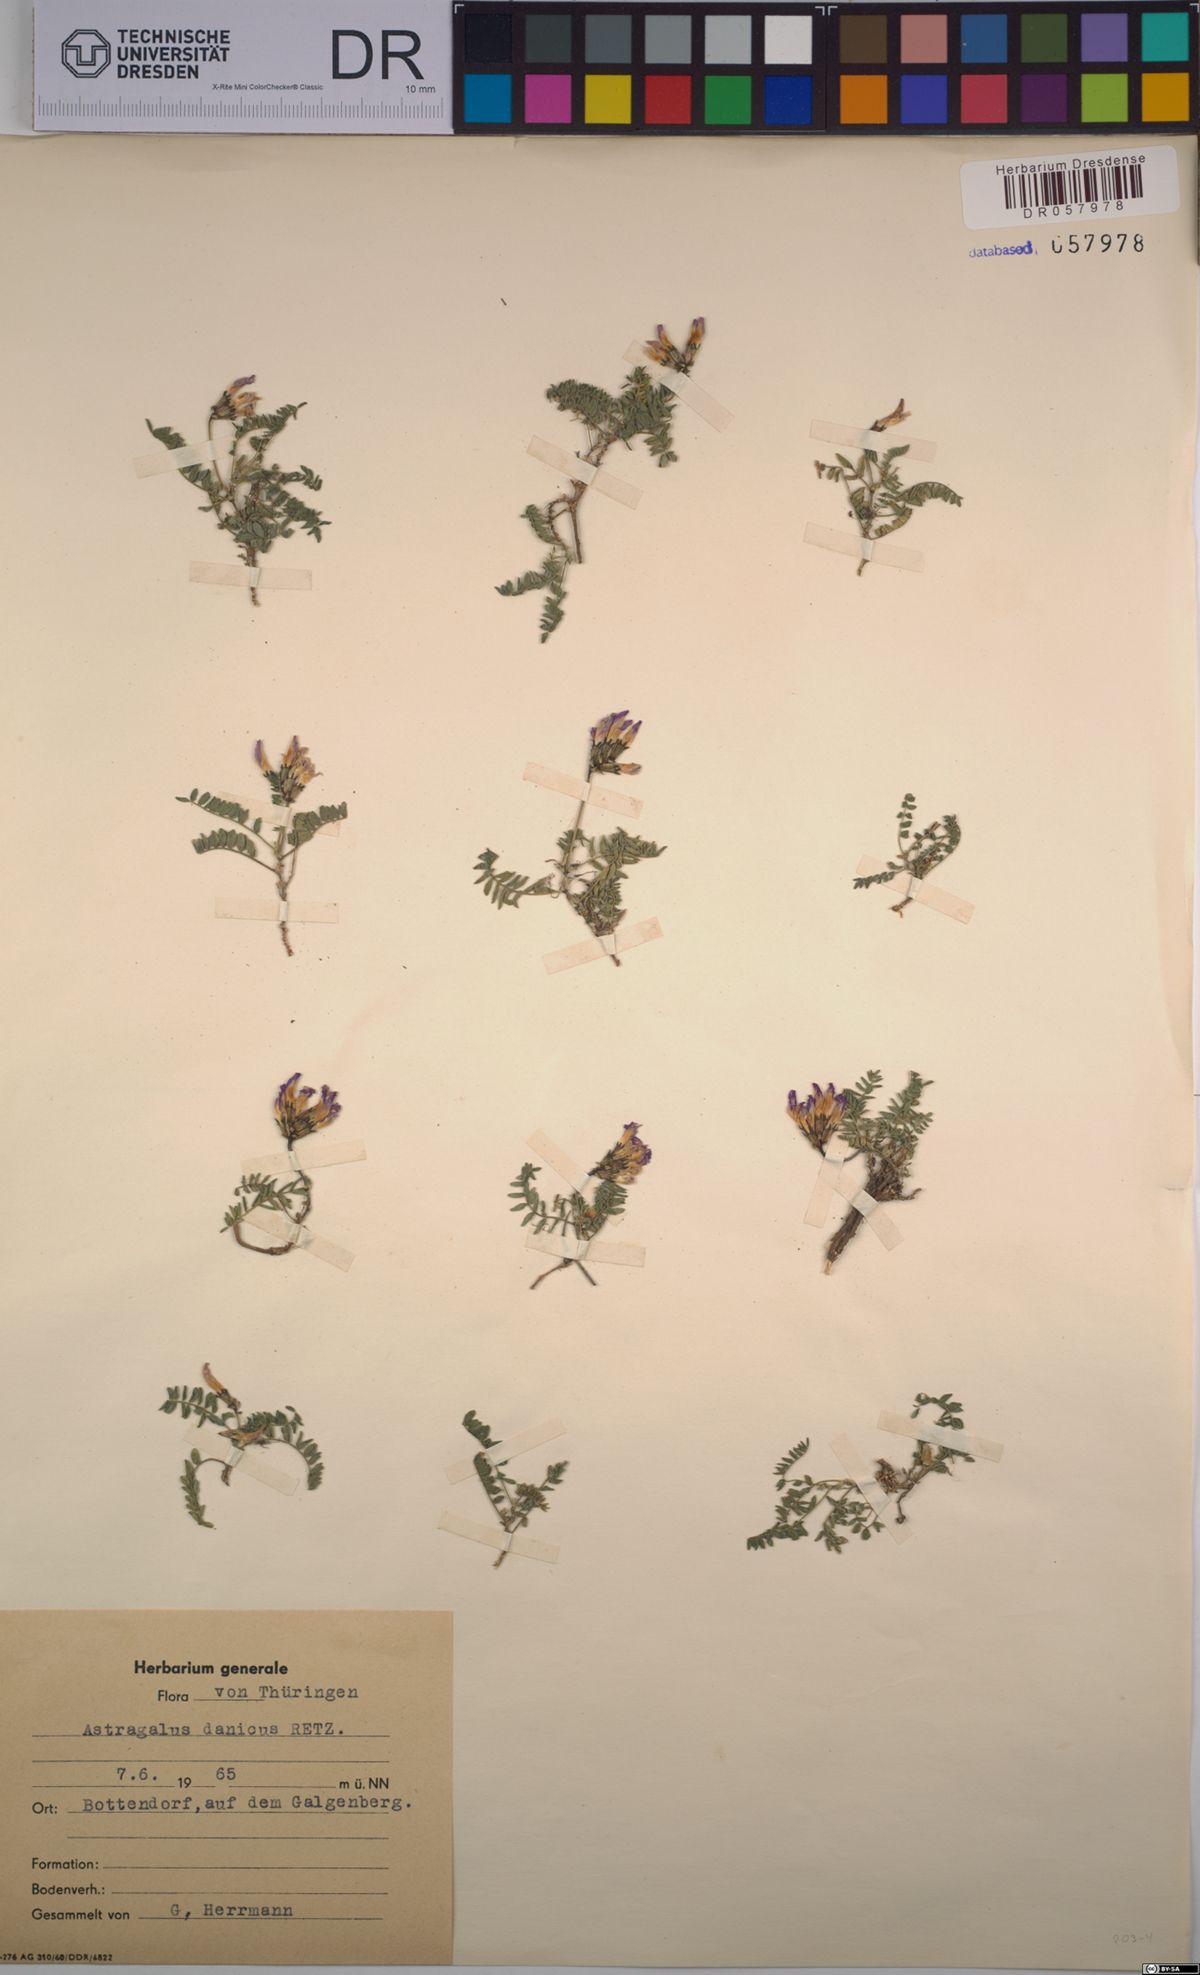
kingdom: Plantae
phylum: Tracheophyta
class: Magnoliopsida
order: Fabales
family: Fabaceae
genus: Astragalus
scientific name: Astragalus danicus
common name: Purple milk-vetch
